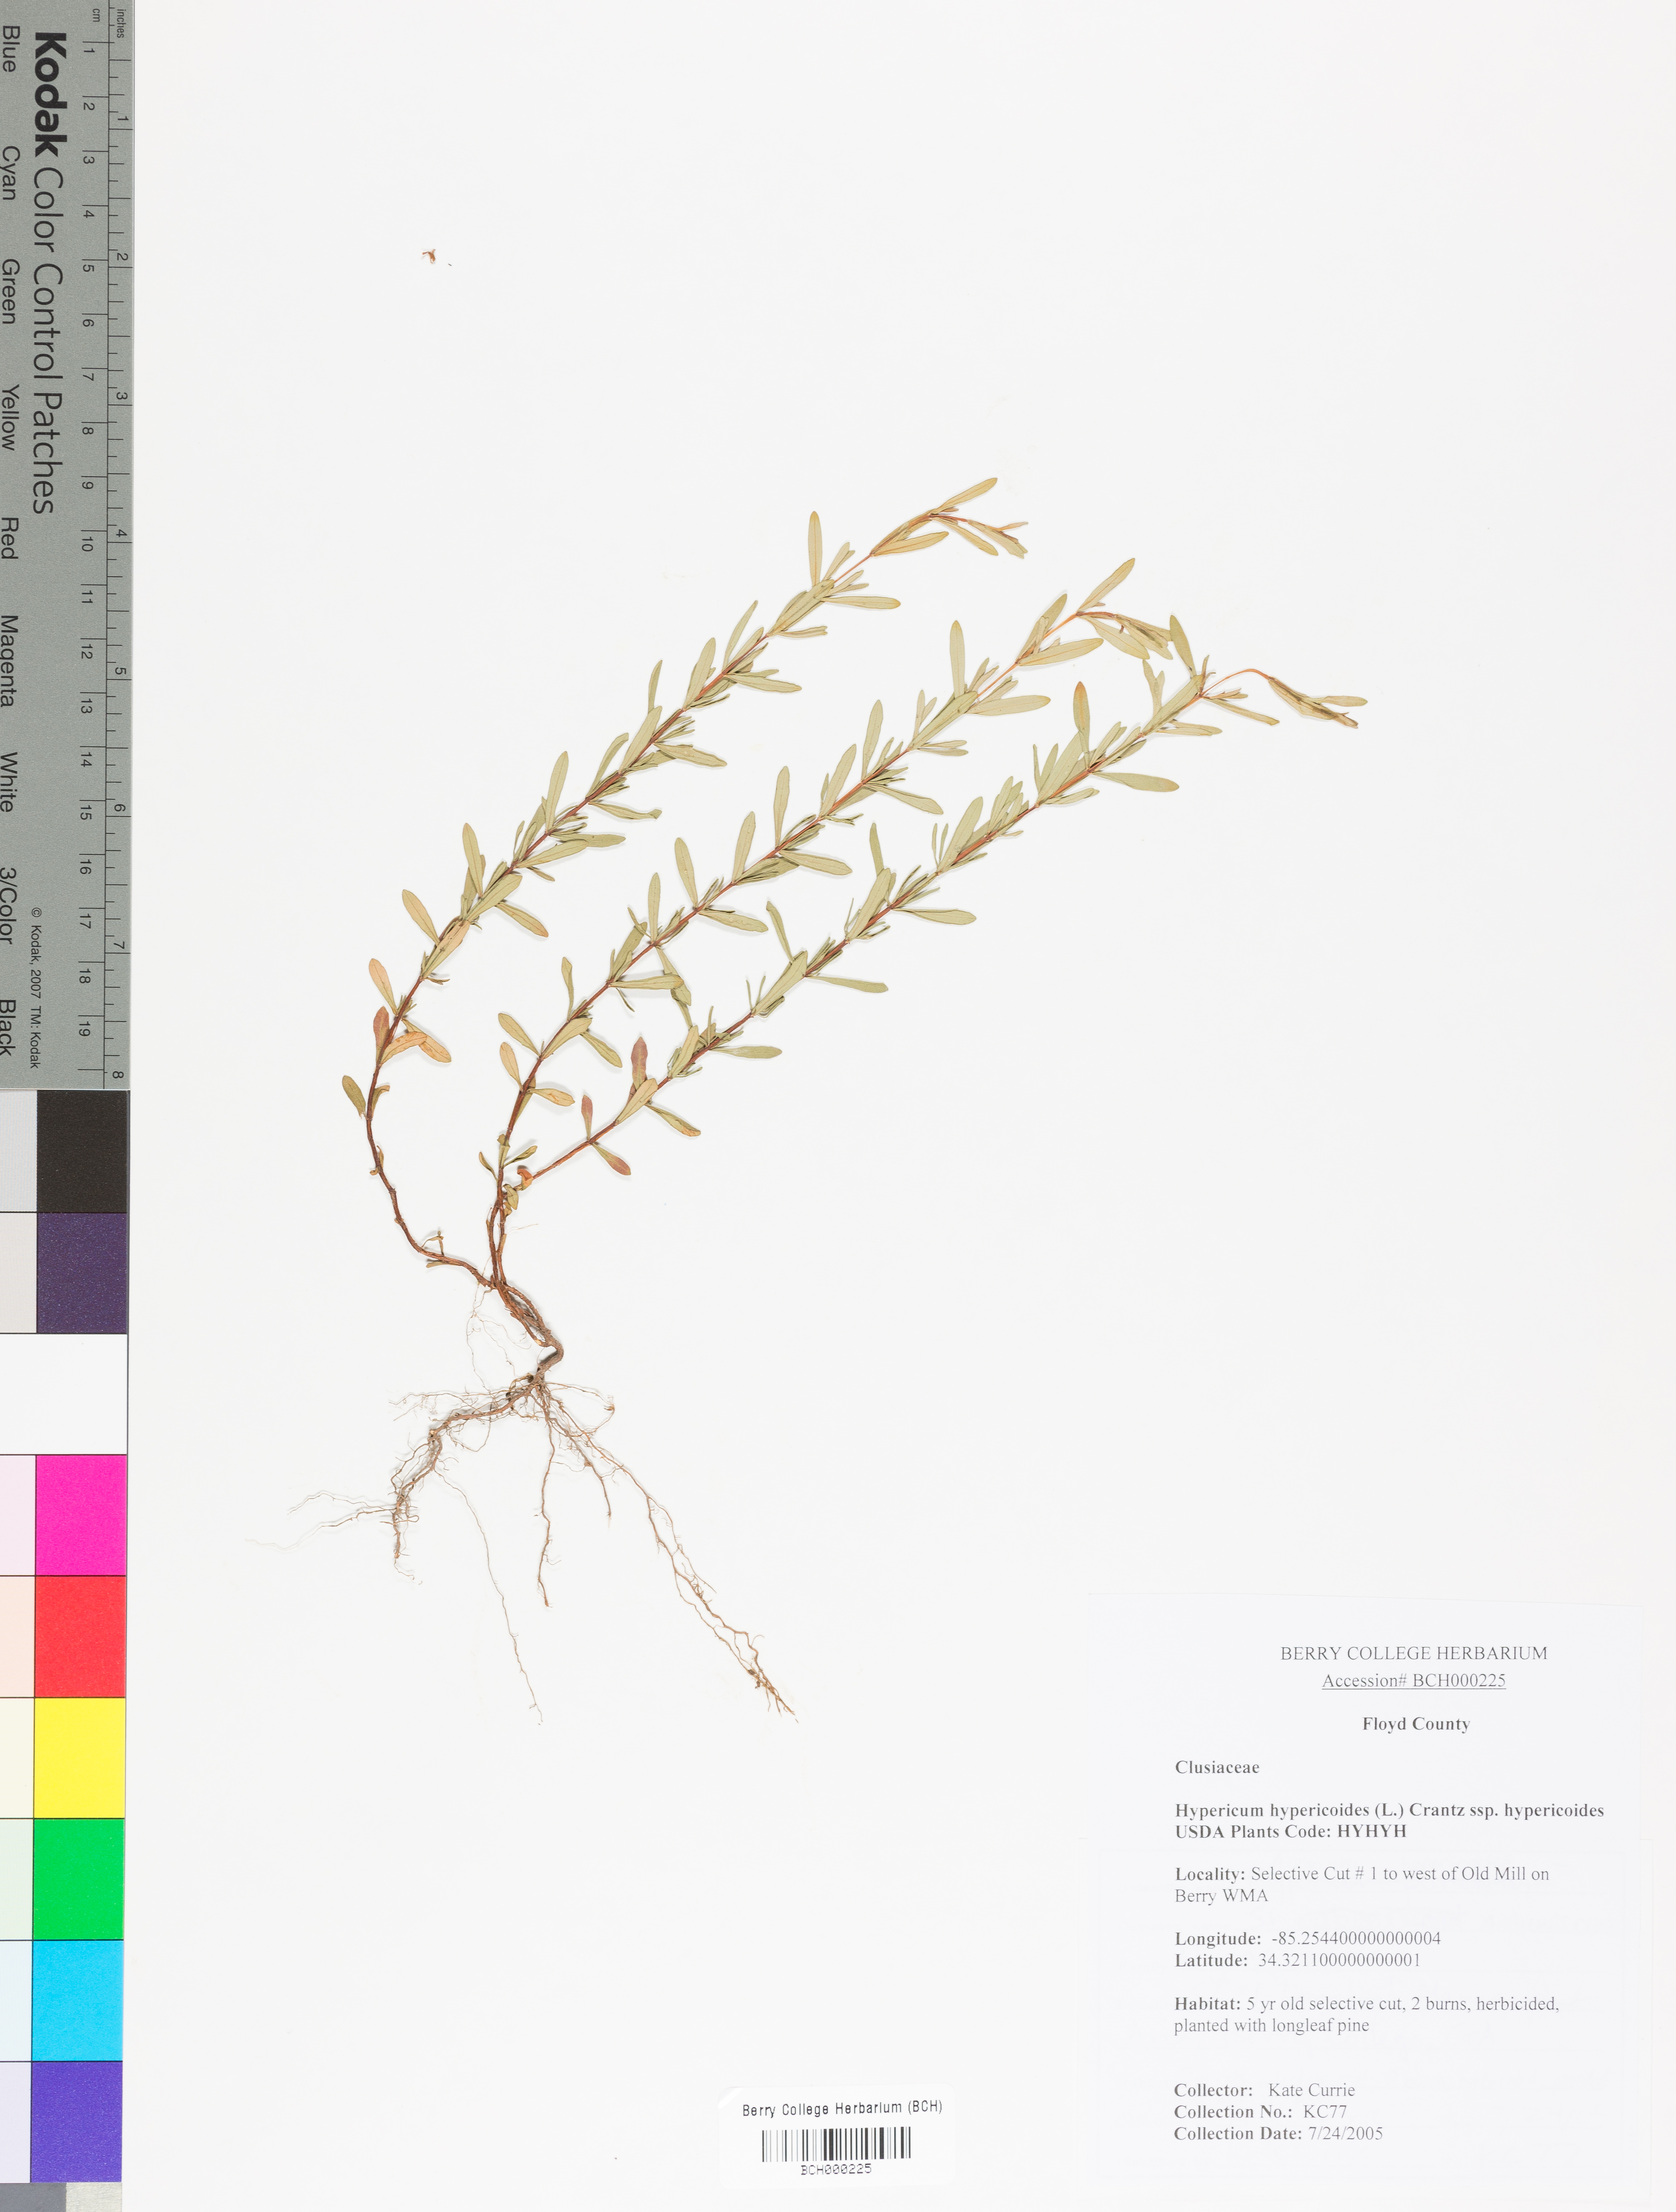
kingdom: Plantae
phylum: Tracheophyta
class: Magnoliopsida
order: Malpighiales
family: Hypericaceae
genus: Hypericum
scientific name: Hypericum hypericoides
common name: St. andrew's cross
